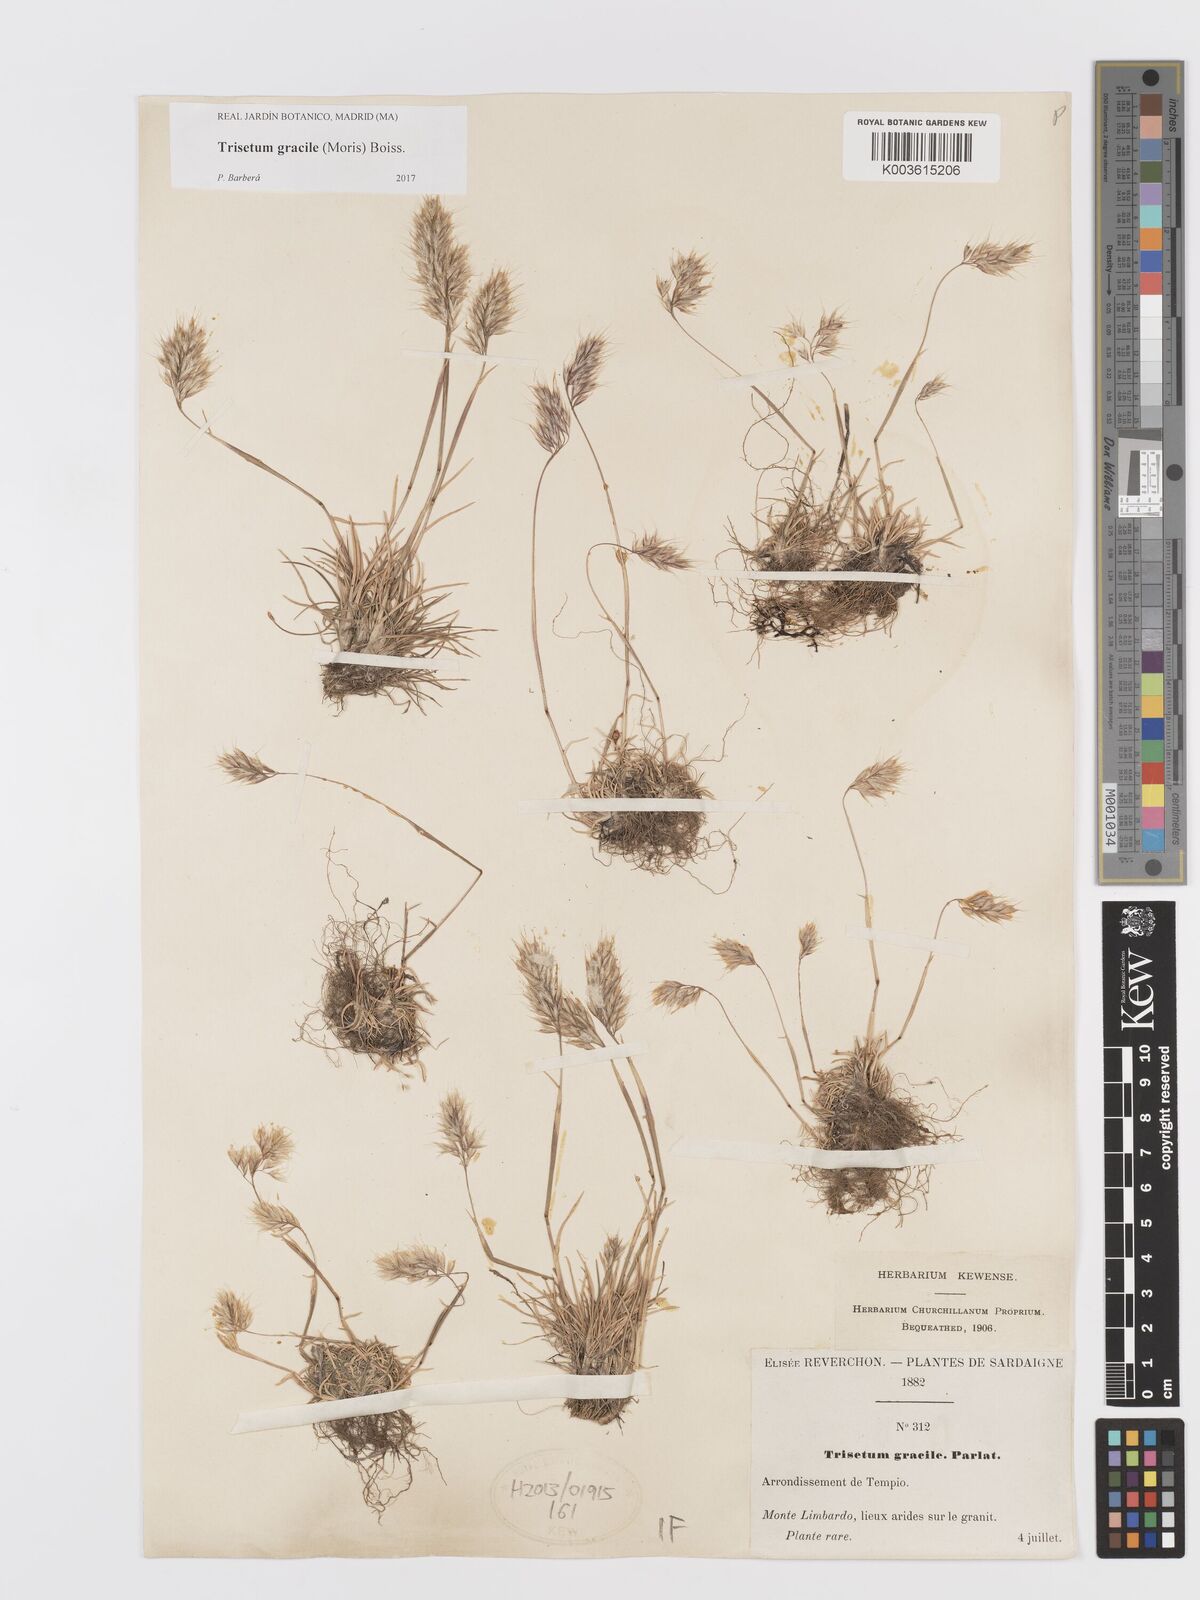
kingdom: Plantae
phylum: Tracheophyta
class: Liliopsida
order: Poales
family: Poaceae
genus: Trisetum
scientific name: Trisetum gracile
